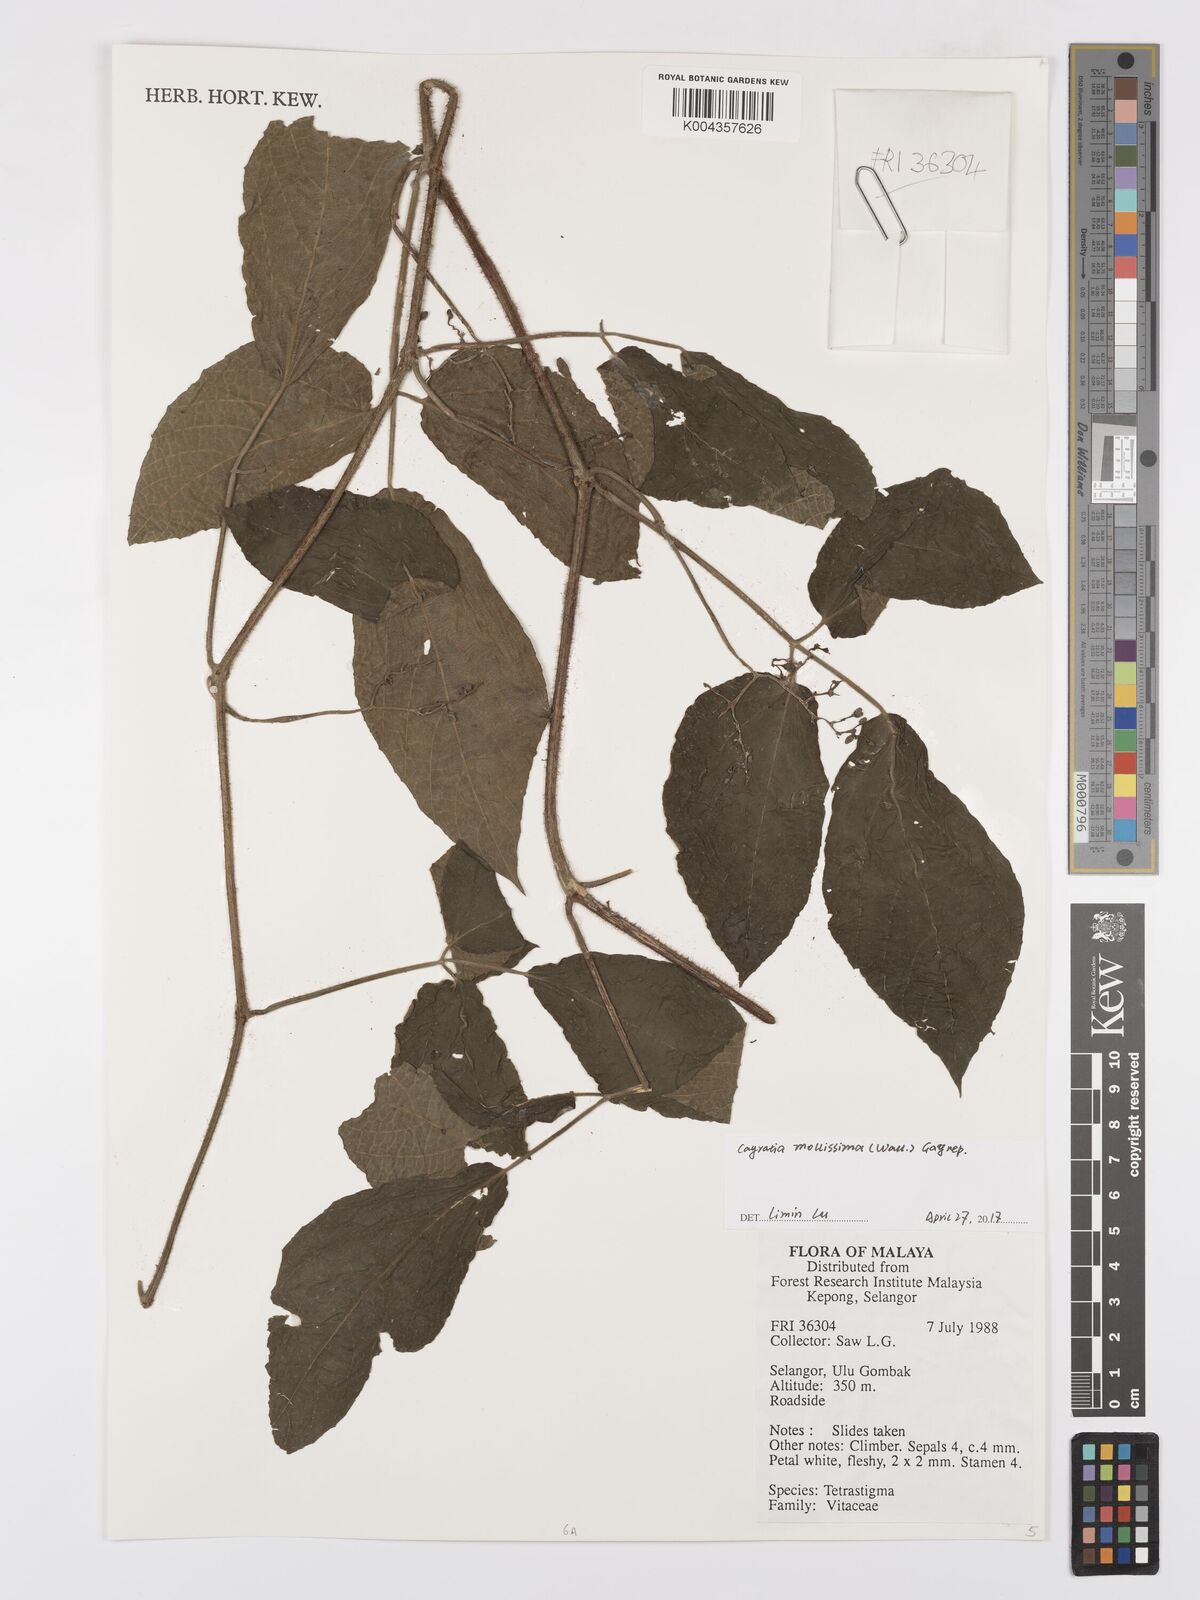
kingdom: Plantae
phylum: Tracheophyta
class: Magnoliopsida
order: Vitales
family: Vitaceae
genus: Cayratia
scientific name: Cayratia mollissima
